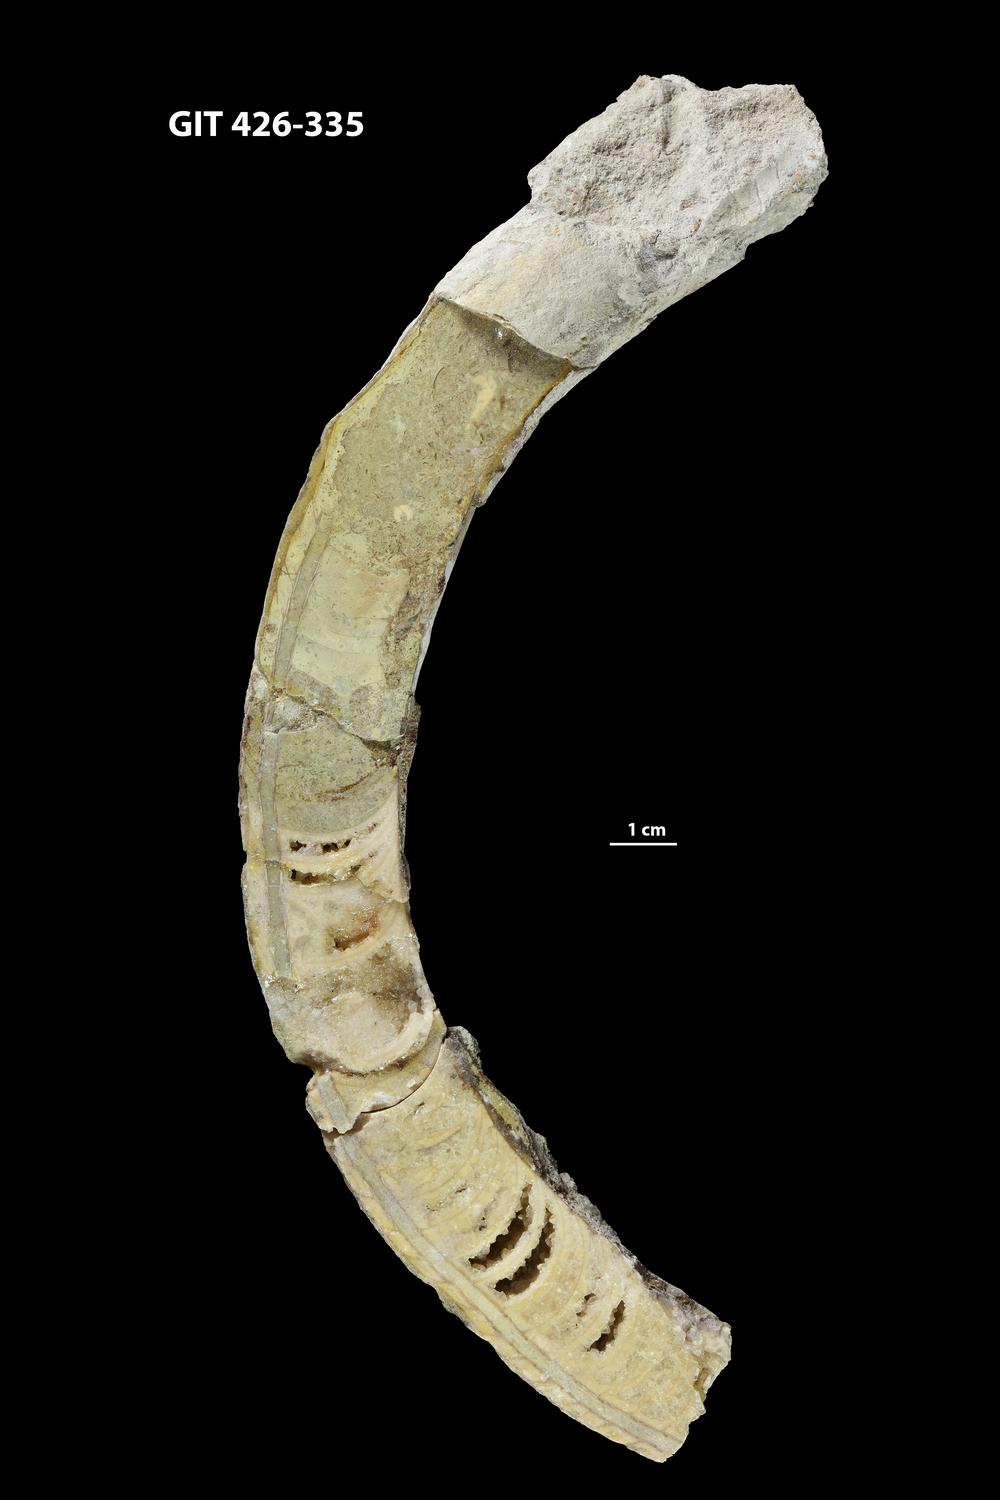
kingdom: Animalia
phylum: Mollusca
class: Cephalopoda
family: Estonioceratidae
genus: Tragoceras
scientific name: Tragoceras
